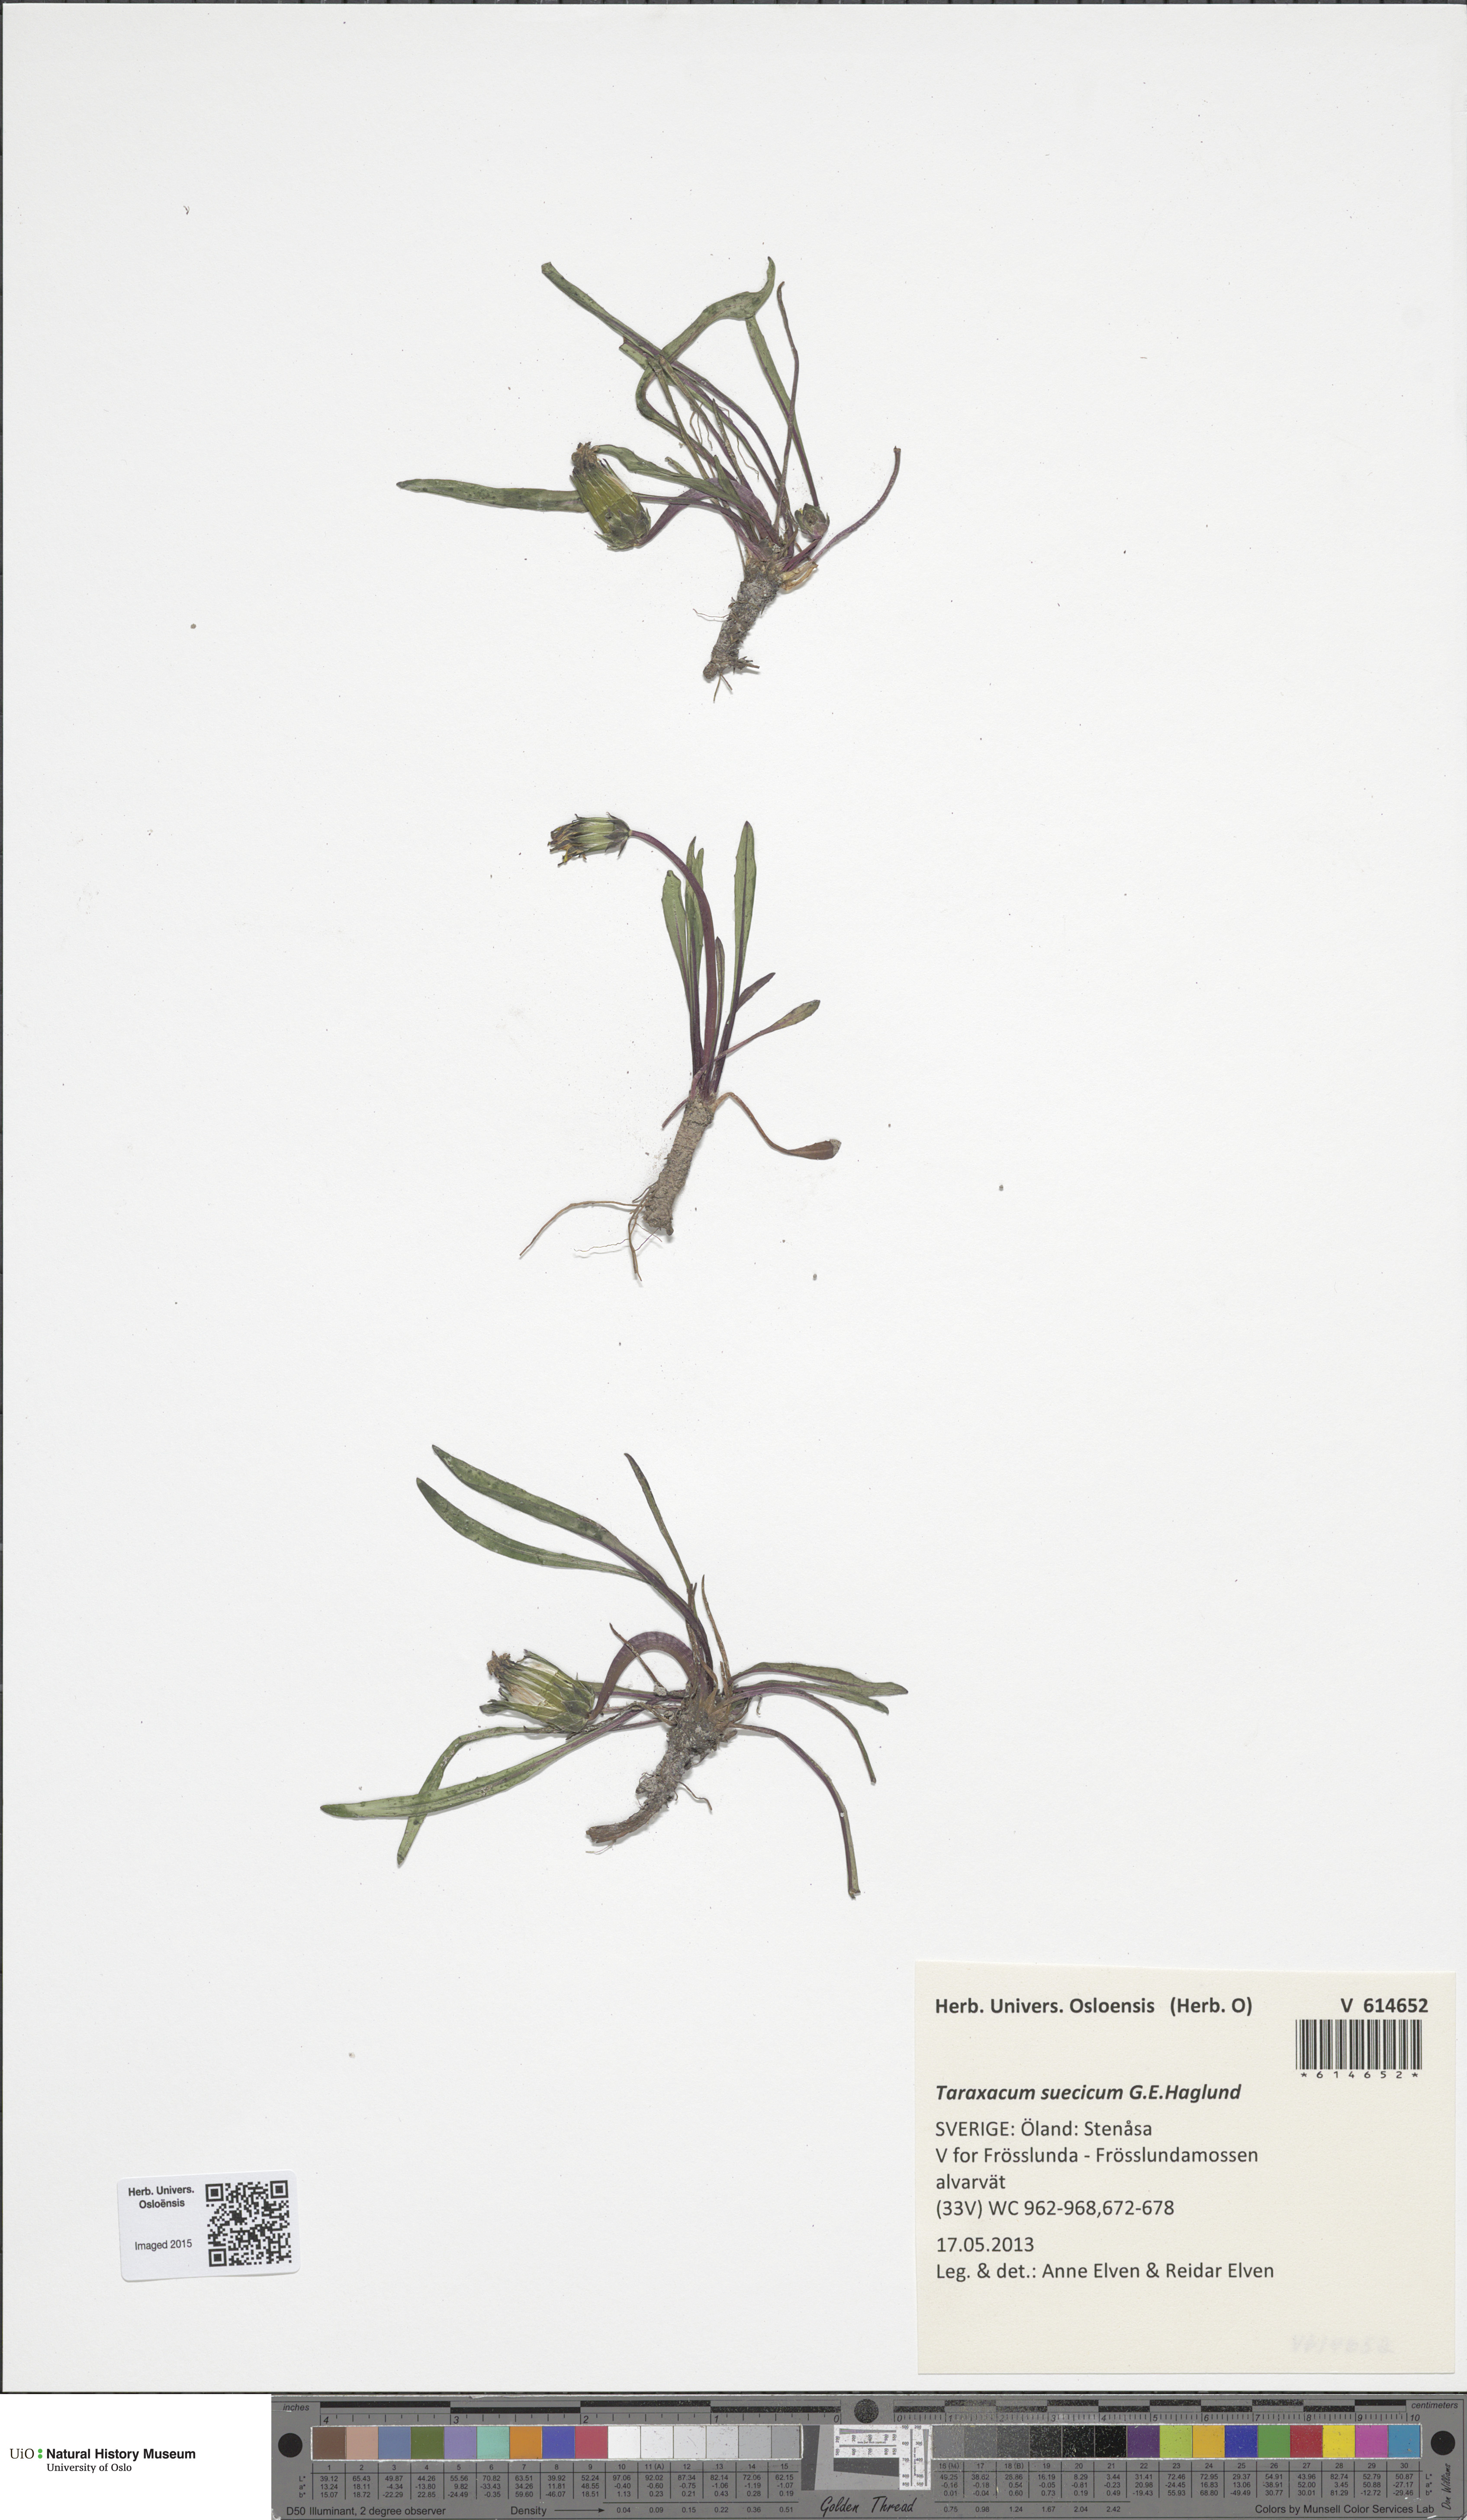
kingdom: Plantae
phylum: Tracheophyta
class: Magnoliopsida
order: Asterales
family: Asteraceae
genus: Taraxacum
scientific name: Taraxacum suecicum
